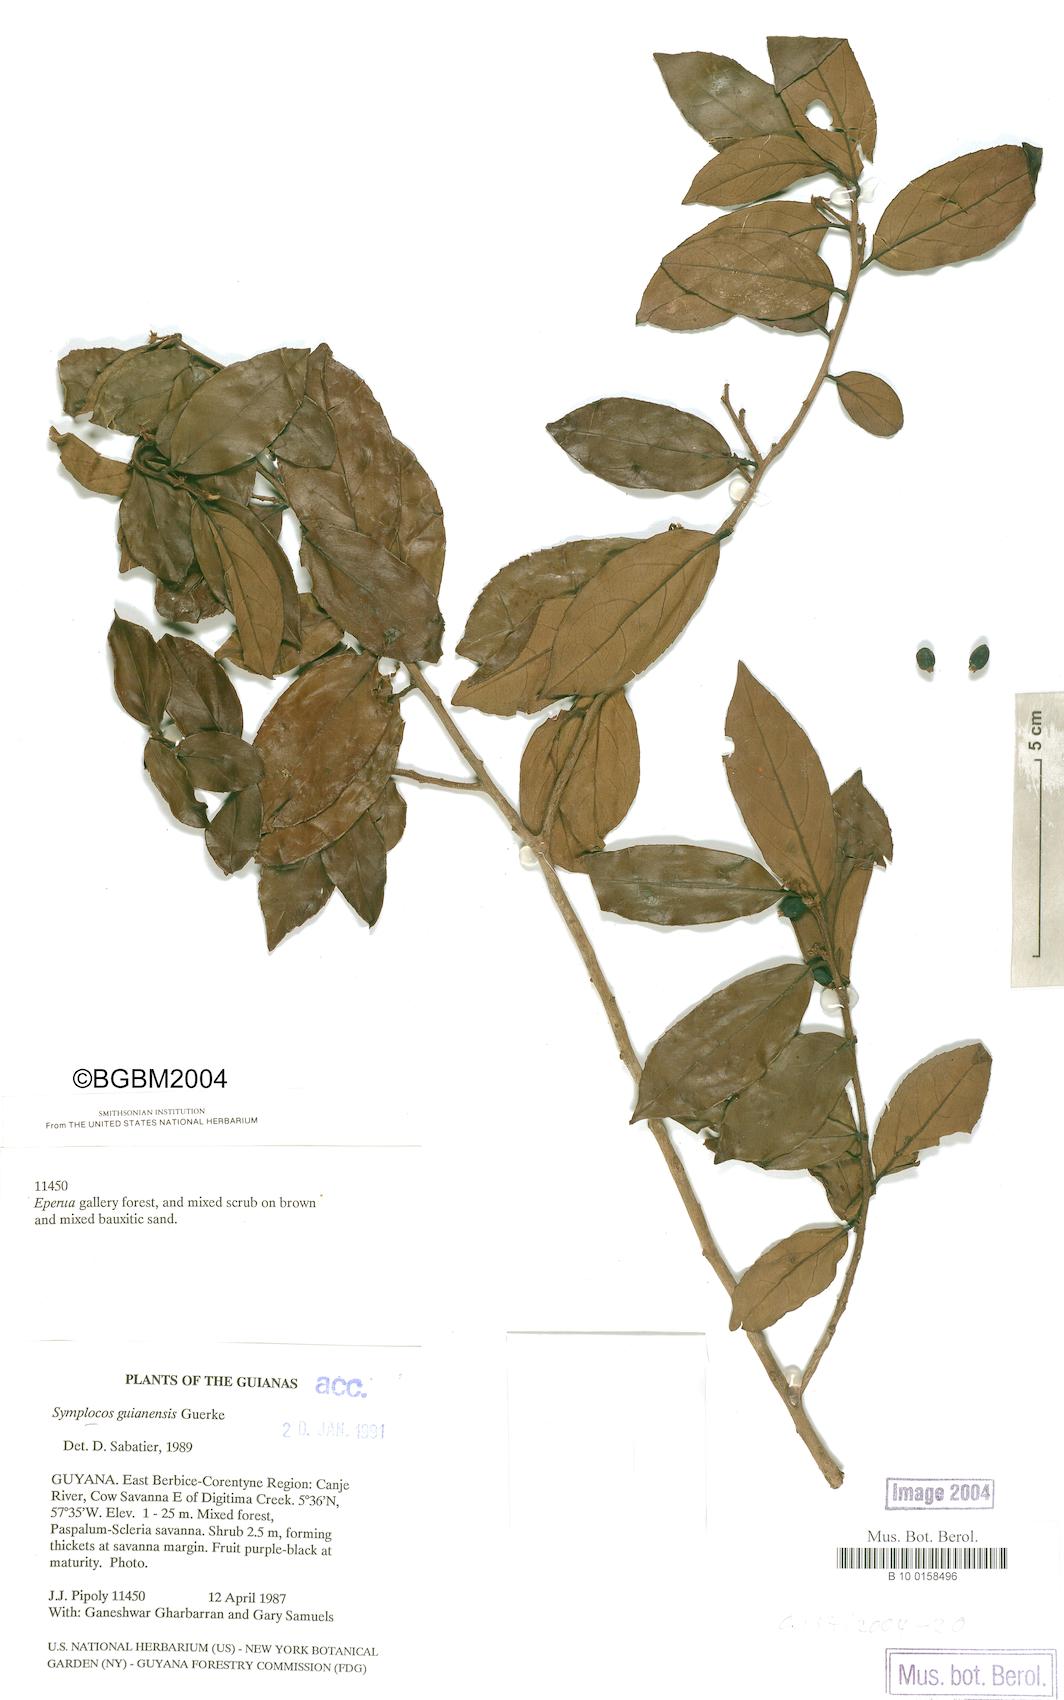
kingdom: Plantae
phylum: Tracheophyta
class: Magnoliopsida
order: Ericales
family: Symplocaceae
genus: Symplocos
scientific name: Symplocos guianensis
